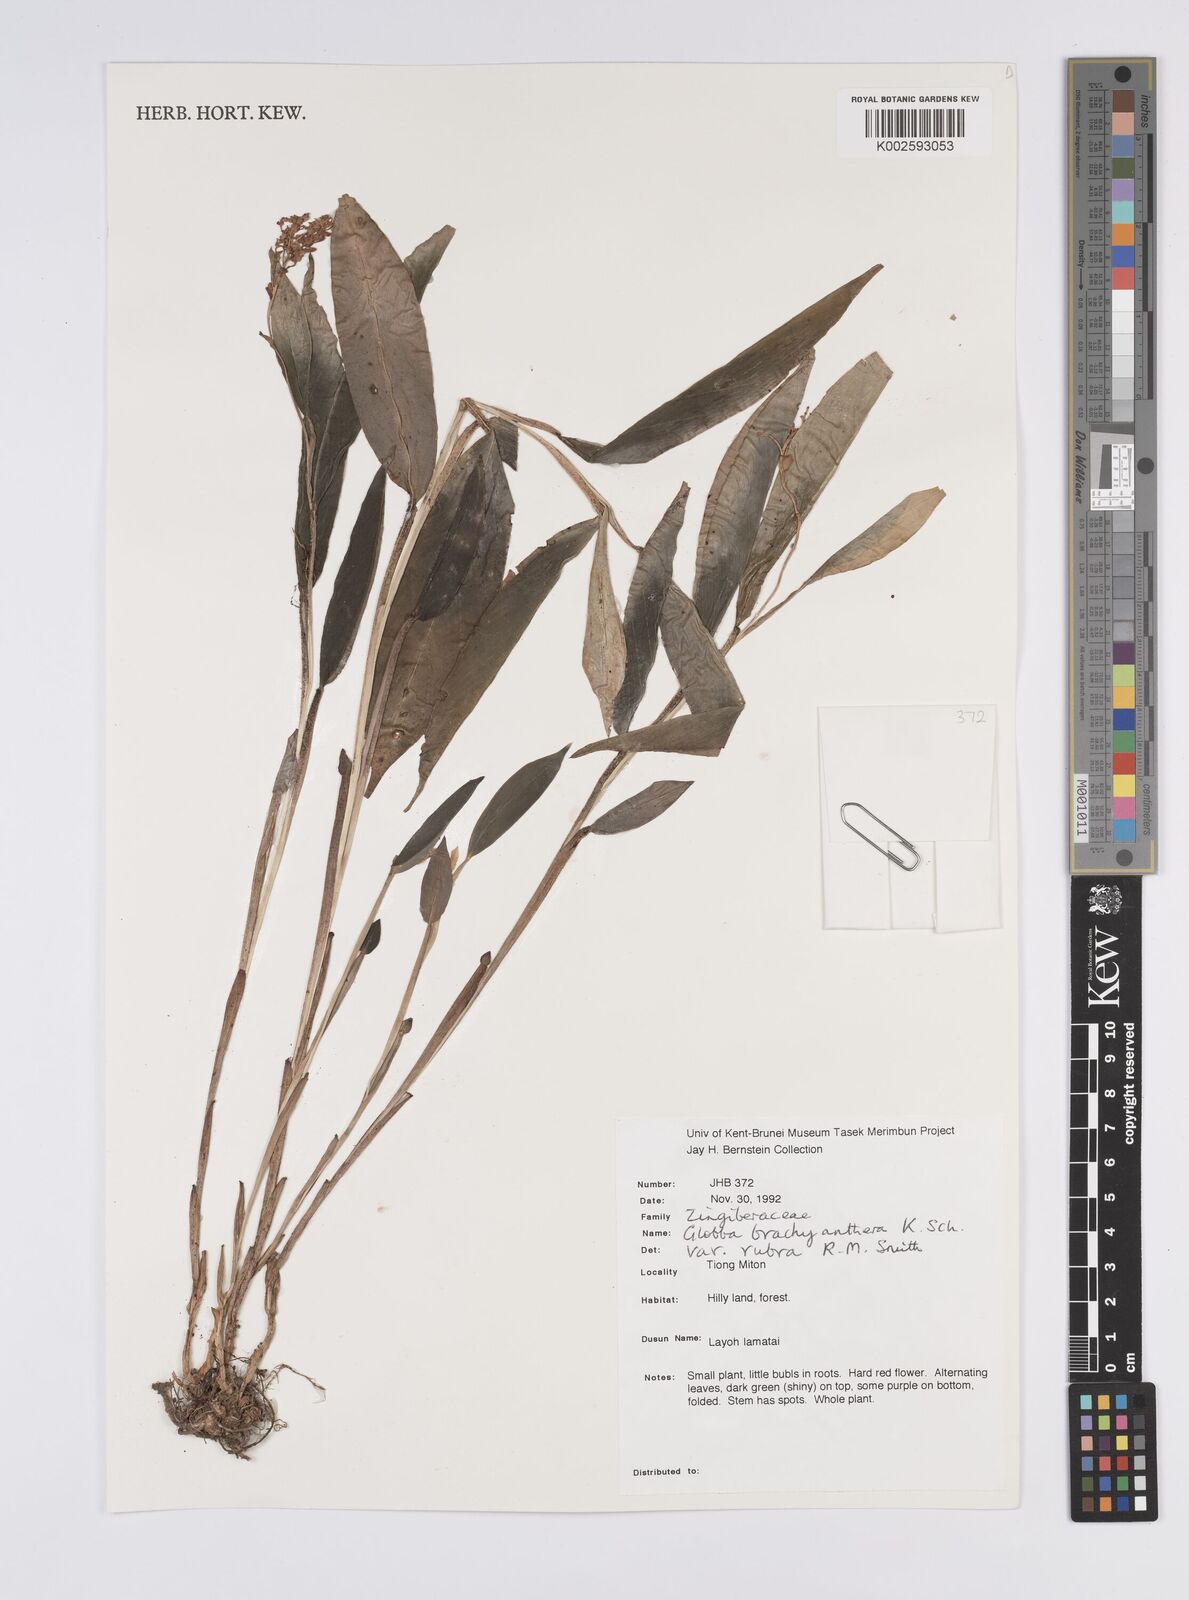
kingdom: Plantae
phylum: Tracheophyta
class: Liliopsida
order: Zingiberales
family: Zingiberaceae
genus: Globba
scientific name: Globba brachyanthera
